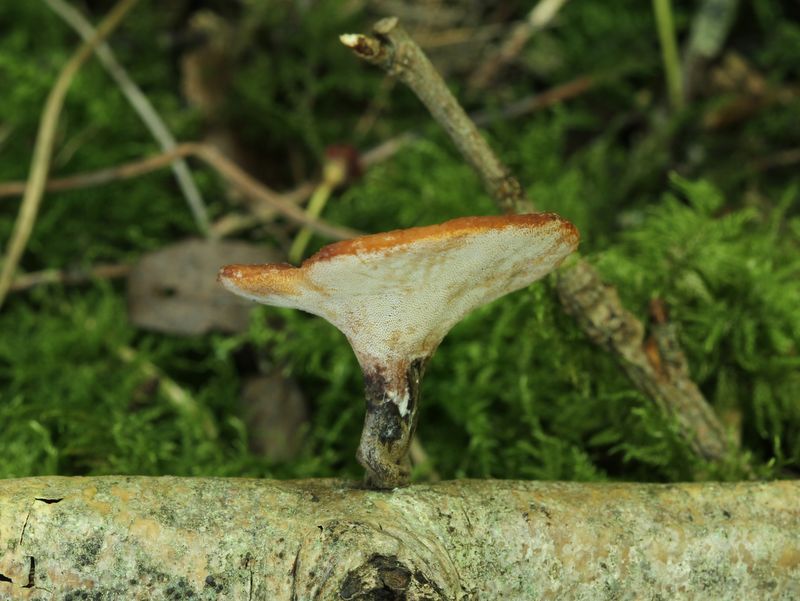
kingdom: Fungi
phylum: Basidiomycota
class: Agaricomycetes
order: Polyporales
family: Polyporaceae
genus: Picipes
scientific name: Picipes tubaeformis
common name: trompet-stilkporesvamp
